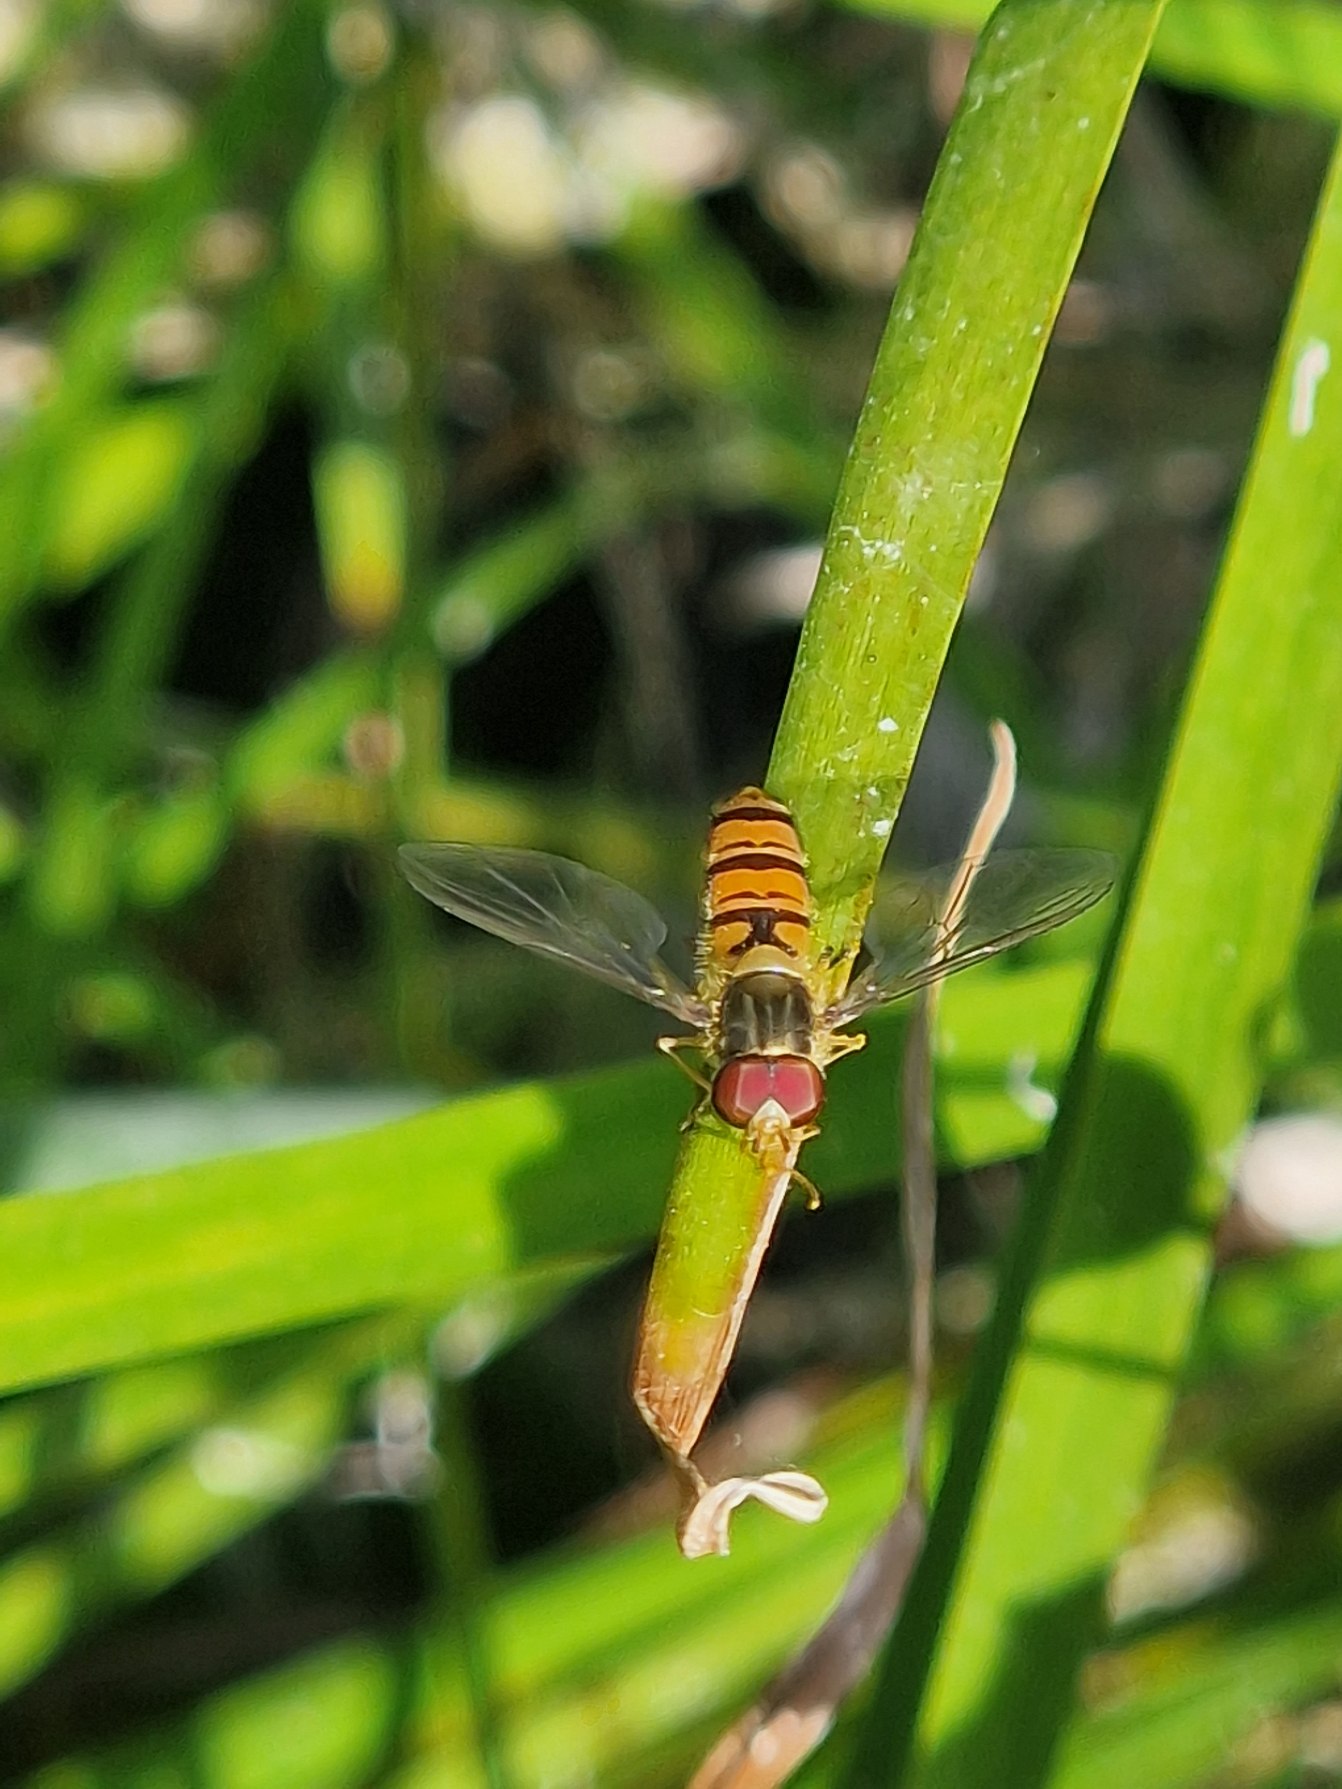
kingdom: Animalia
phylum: Arthropoda
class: Insecta
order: Diptera
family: Syrphidae
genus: Episyrphus
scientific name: Episyrphus balteatus
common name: Dobbeltbåndet svirreflue
